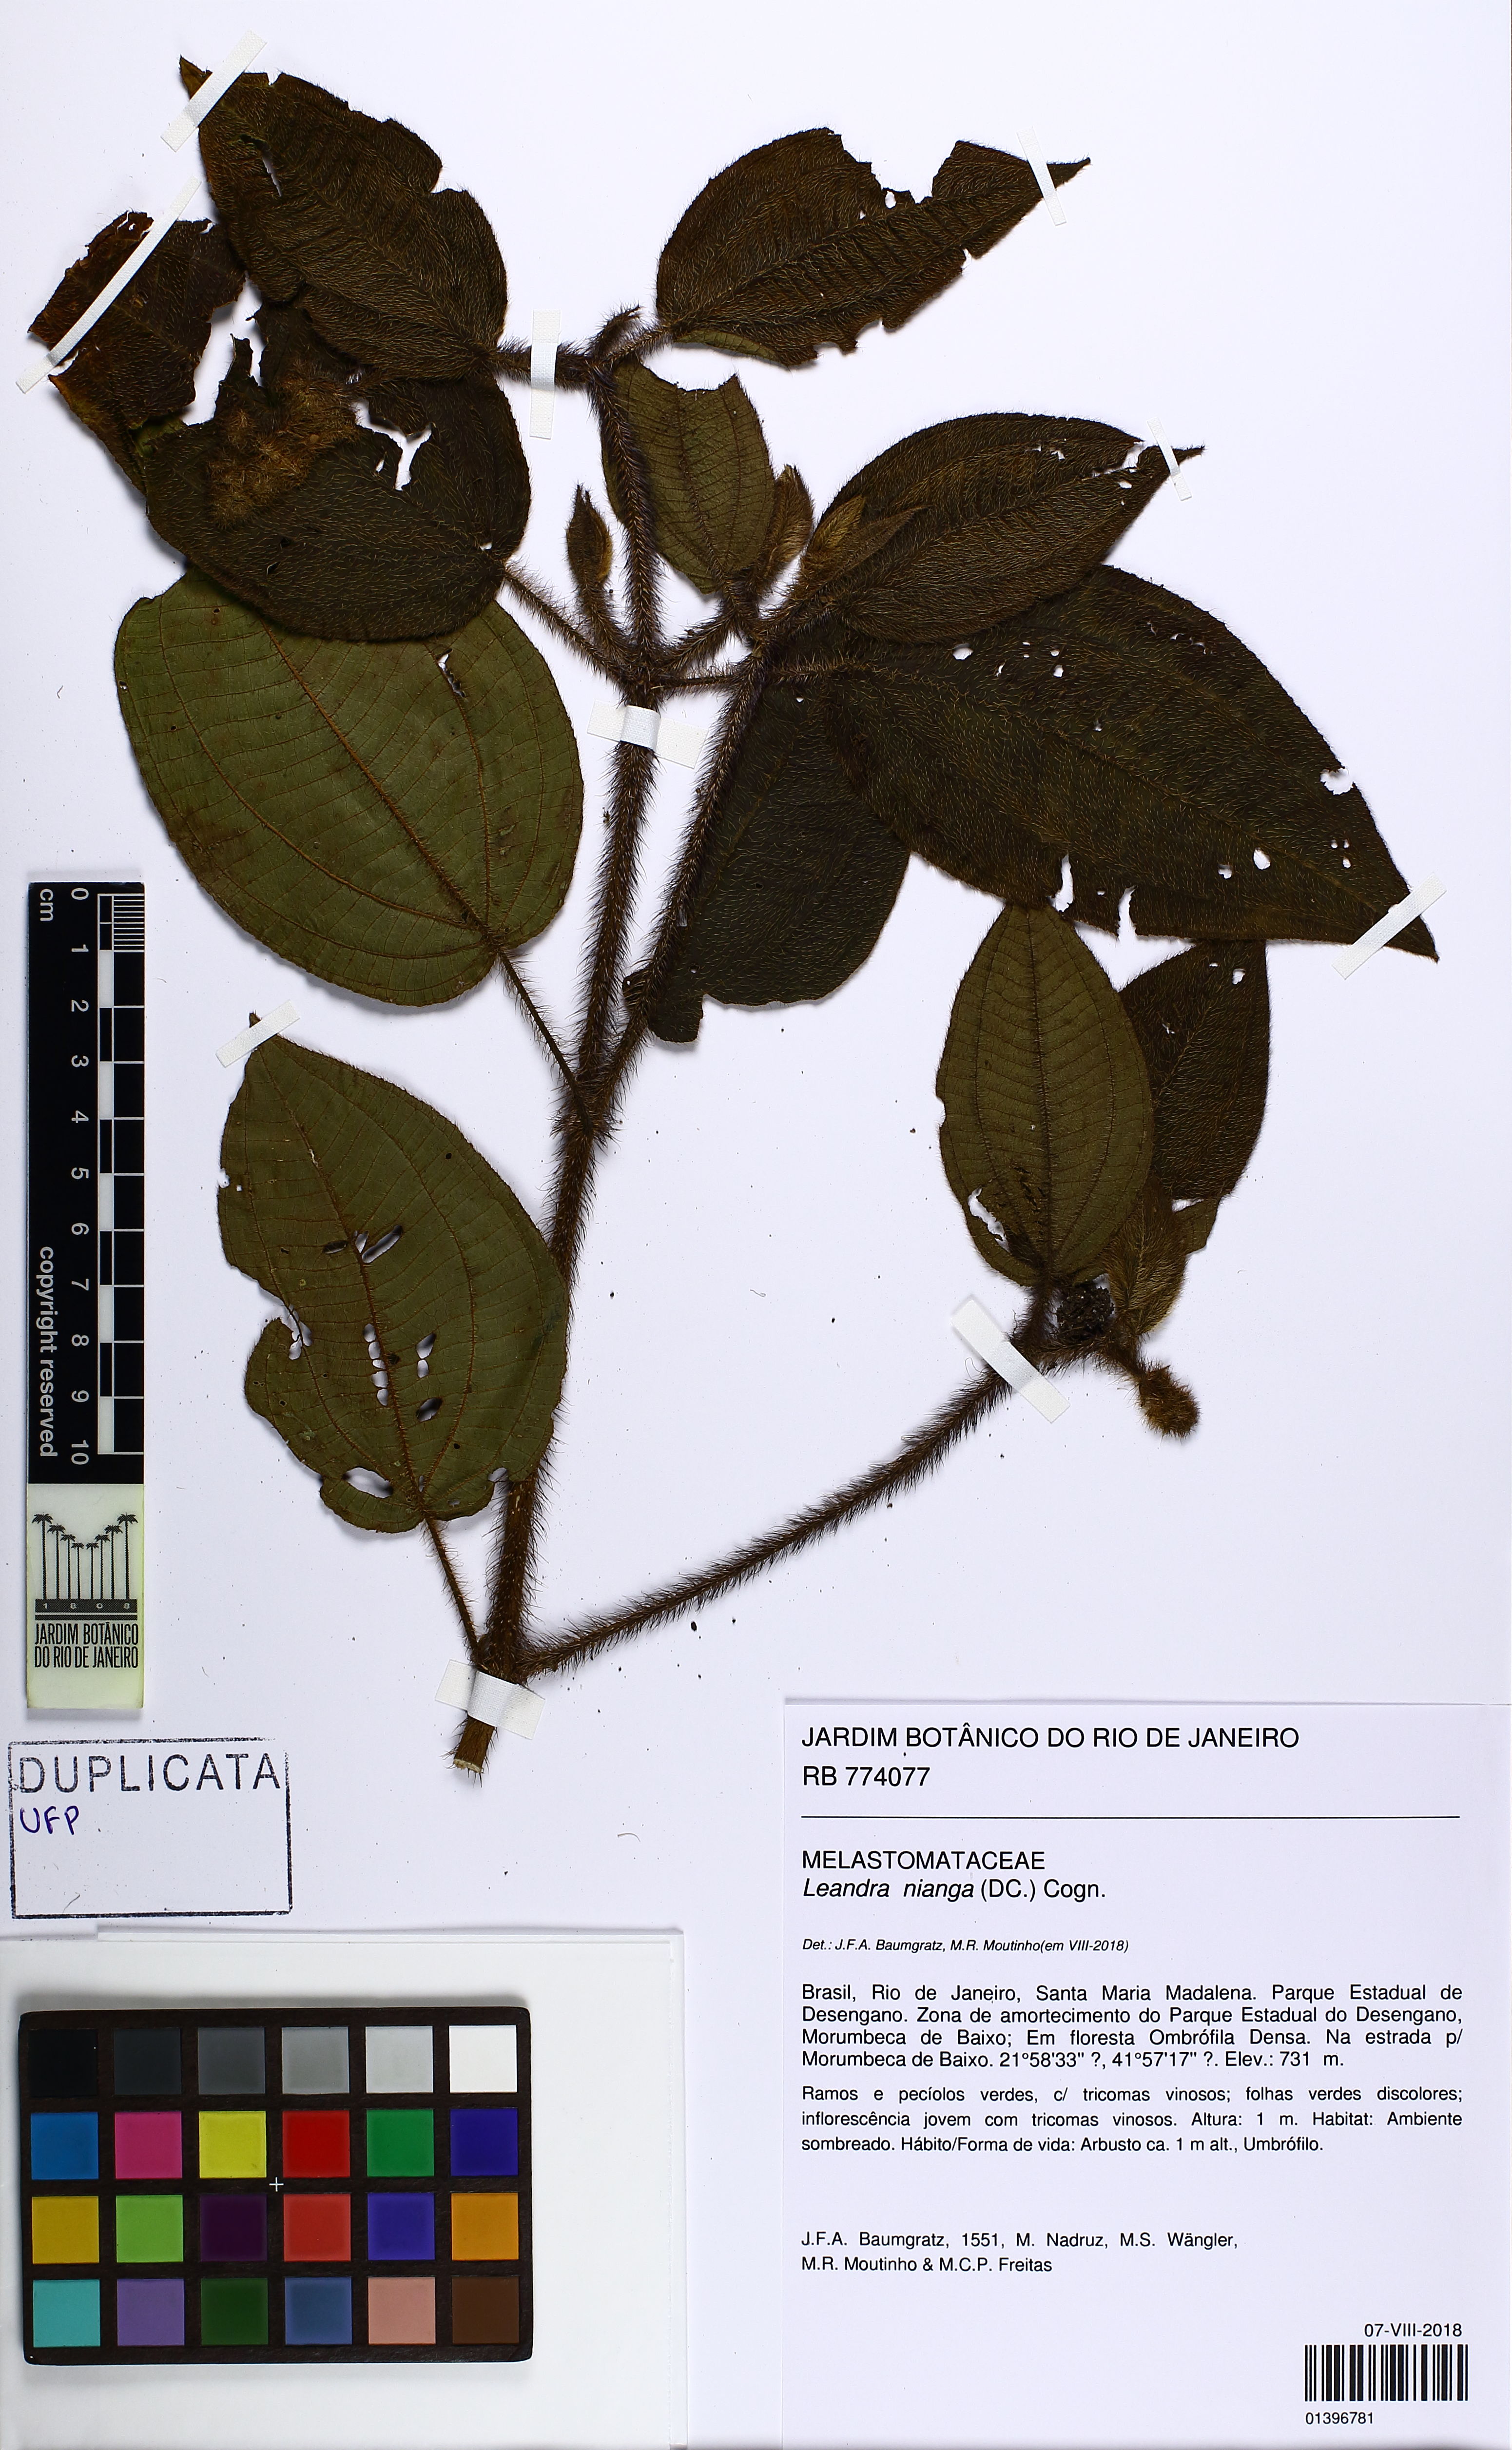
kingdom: Plantae
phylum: Tracheophyta
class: Magnoliopsida
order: Myrtales
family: Melastomataceae
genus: Miconia
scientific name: Miconia nianga
